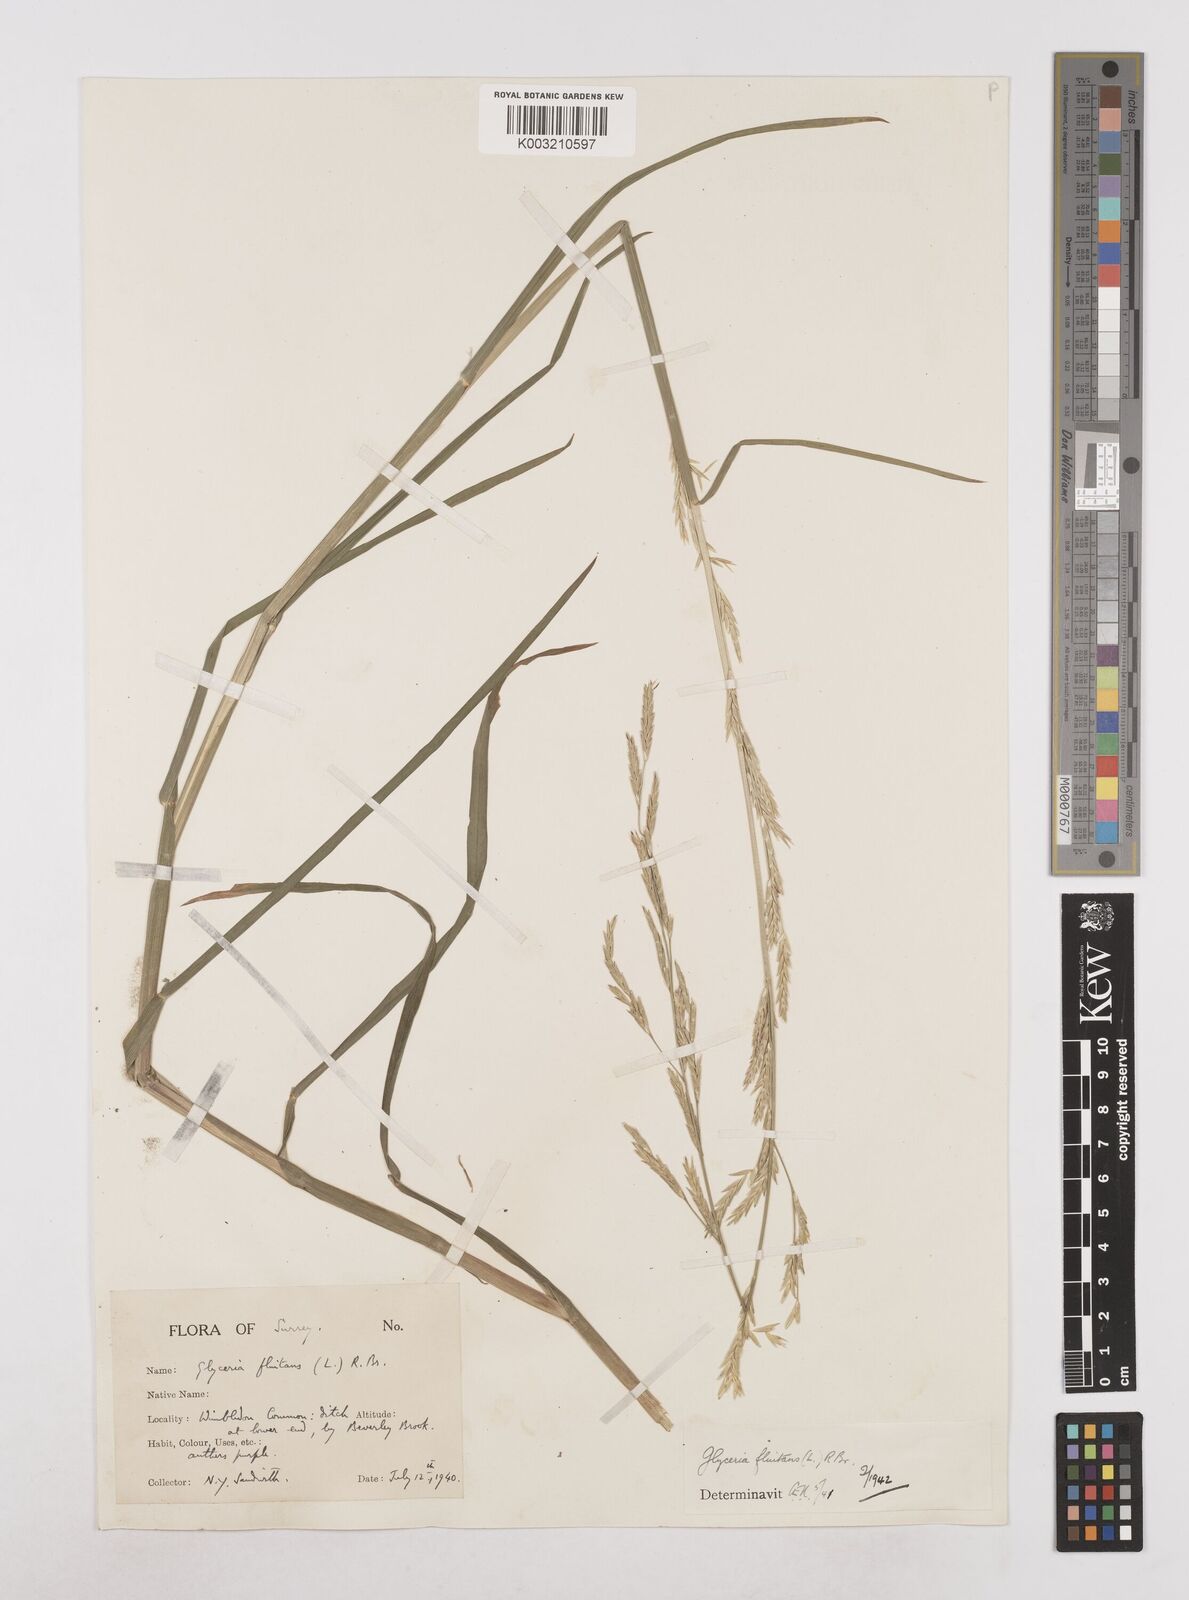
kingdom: Plantae
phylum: Tracheophyta
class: Liliopsida
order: Poales
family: Poaceae
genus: Glyceria
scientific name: Glyceria fluitans
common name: Floating sweet-grass
